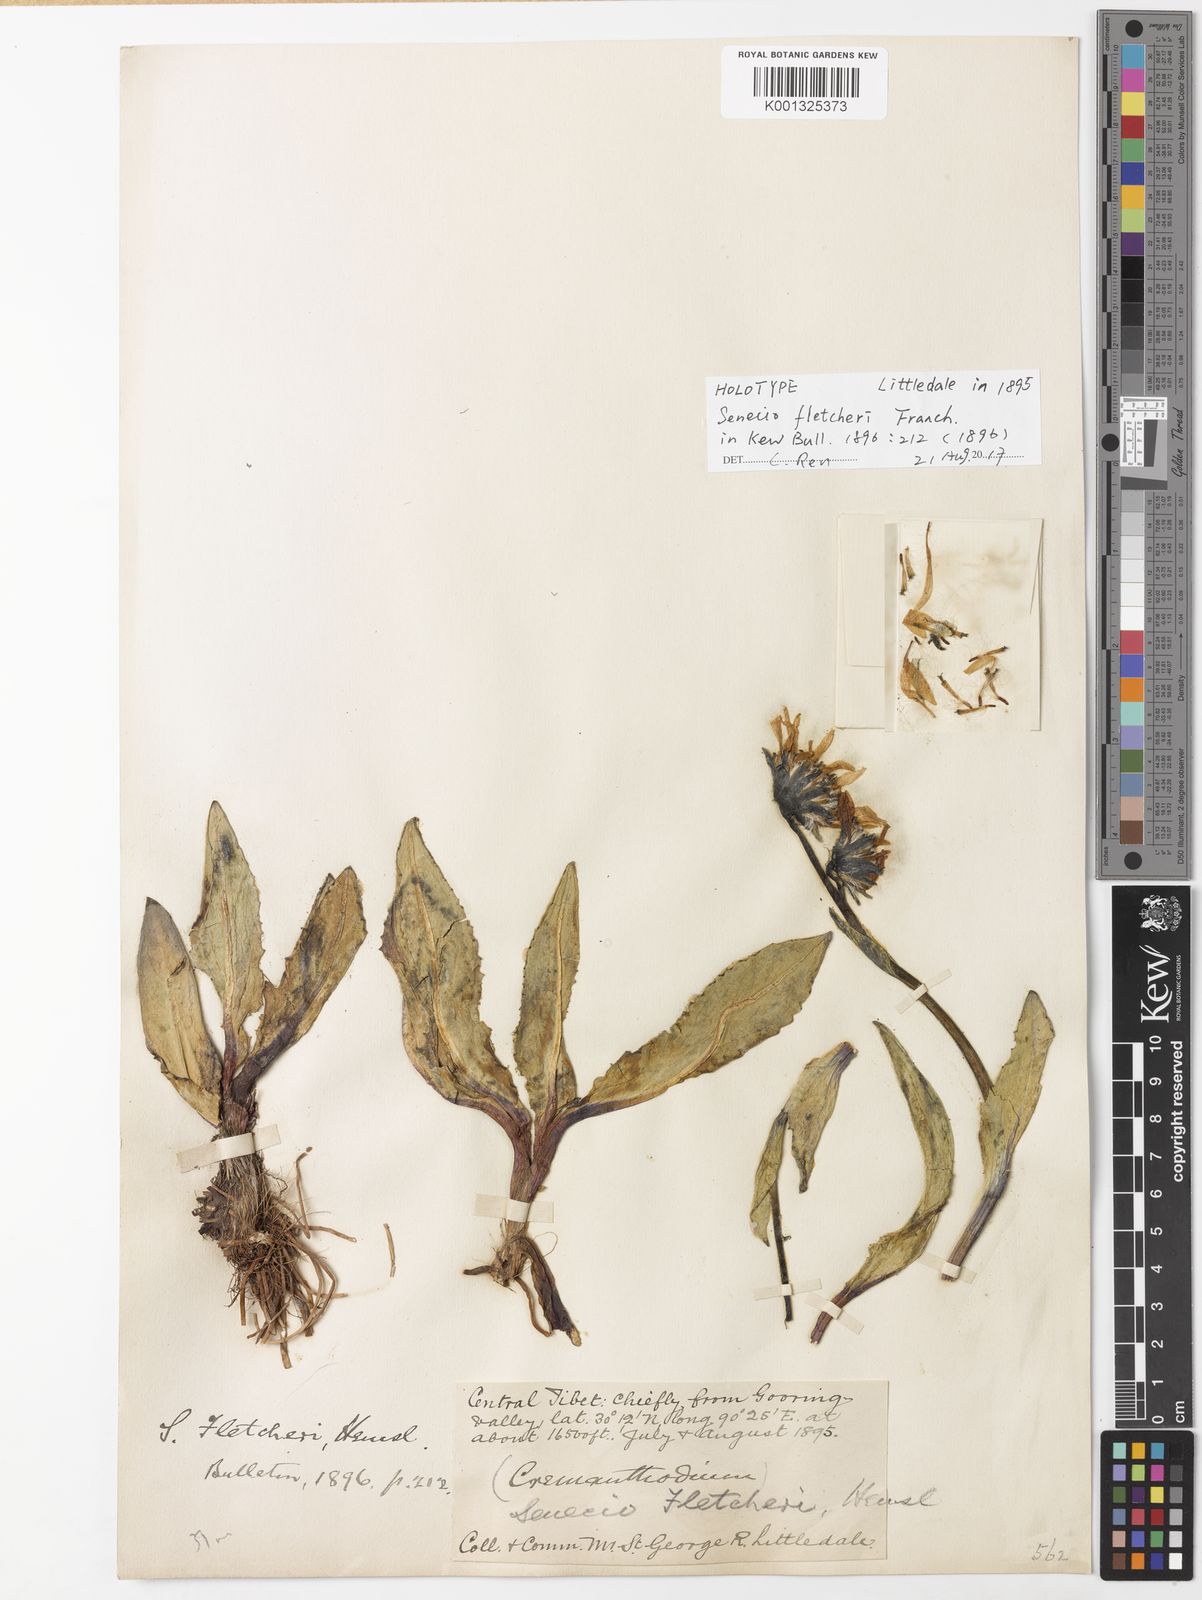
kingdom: Plantae
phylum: Tracheophyta
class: Magnoliopsida
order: Asterales
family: Asteraceae
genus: Senecio
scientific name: Senecio
